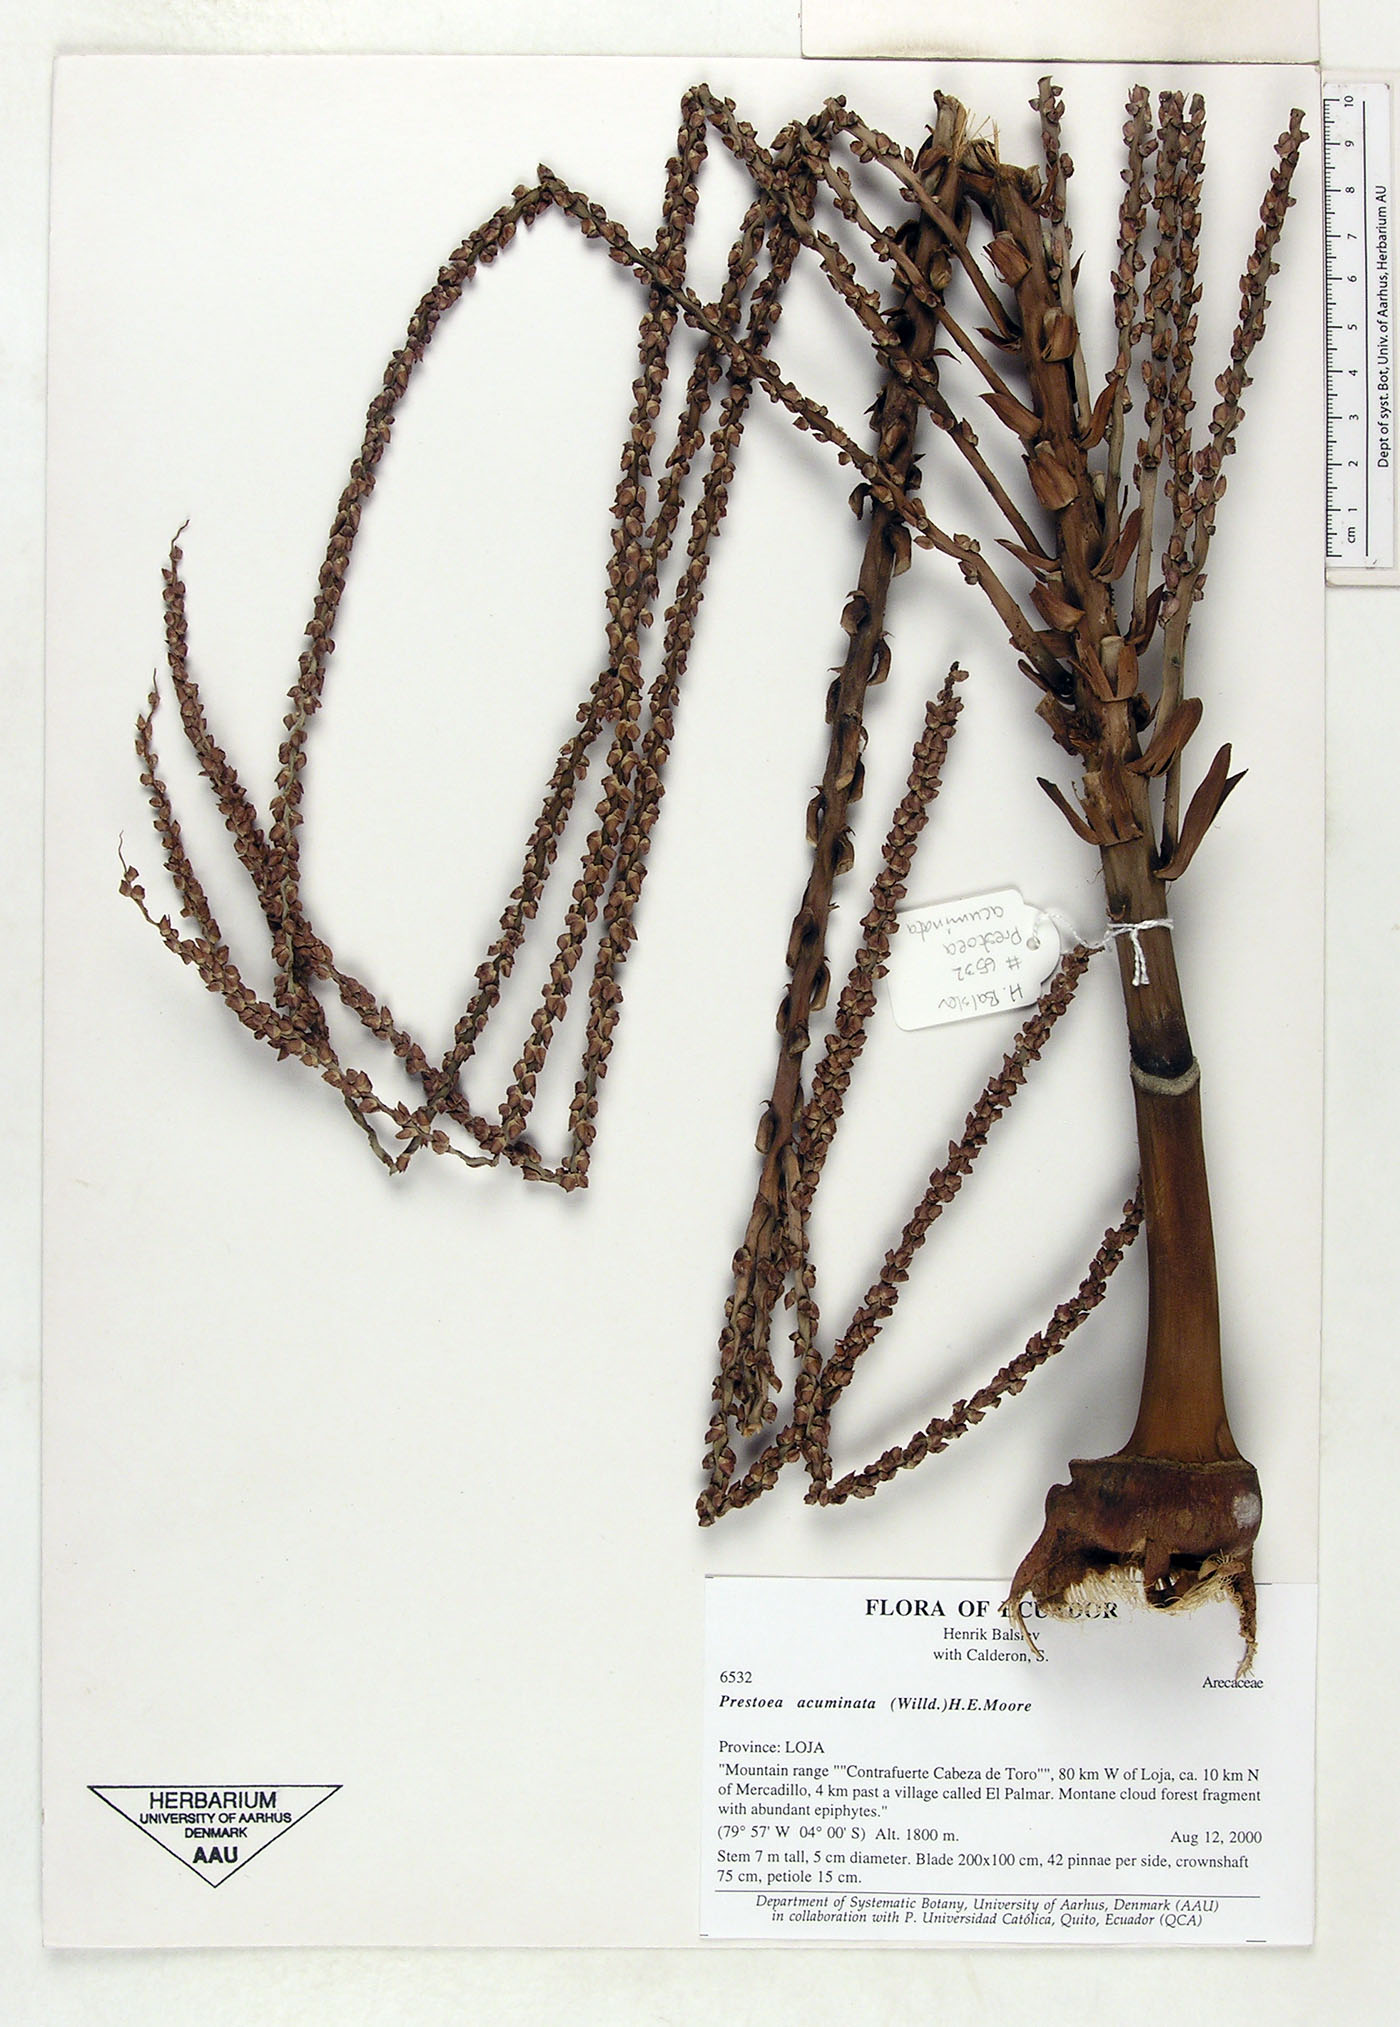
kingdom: Plantae
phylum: Tracheophyta
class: Liliopsida
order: Arecales
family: Arecaceae
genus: Prestoea
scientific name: Prestoea acuminata
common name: Sierran palm
